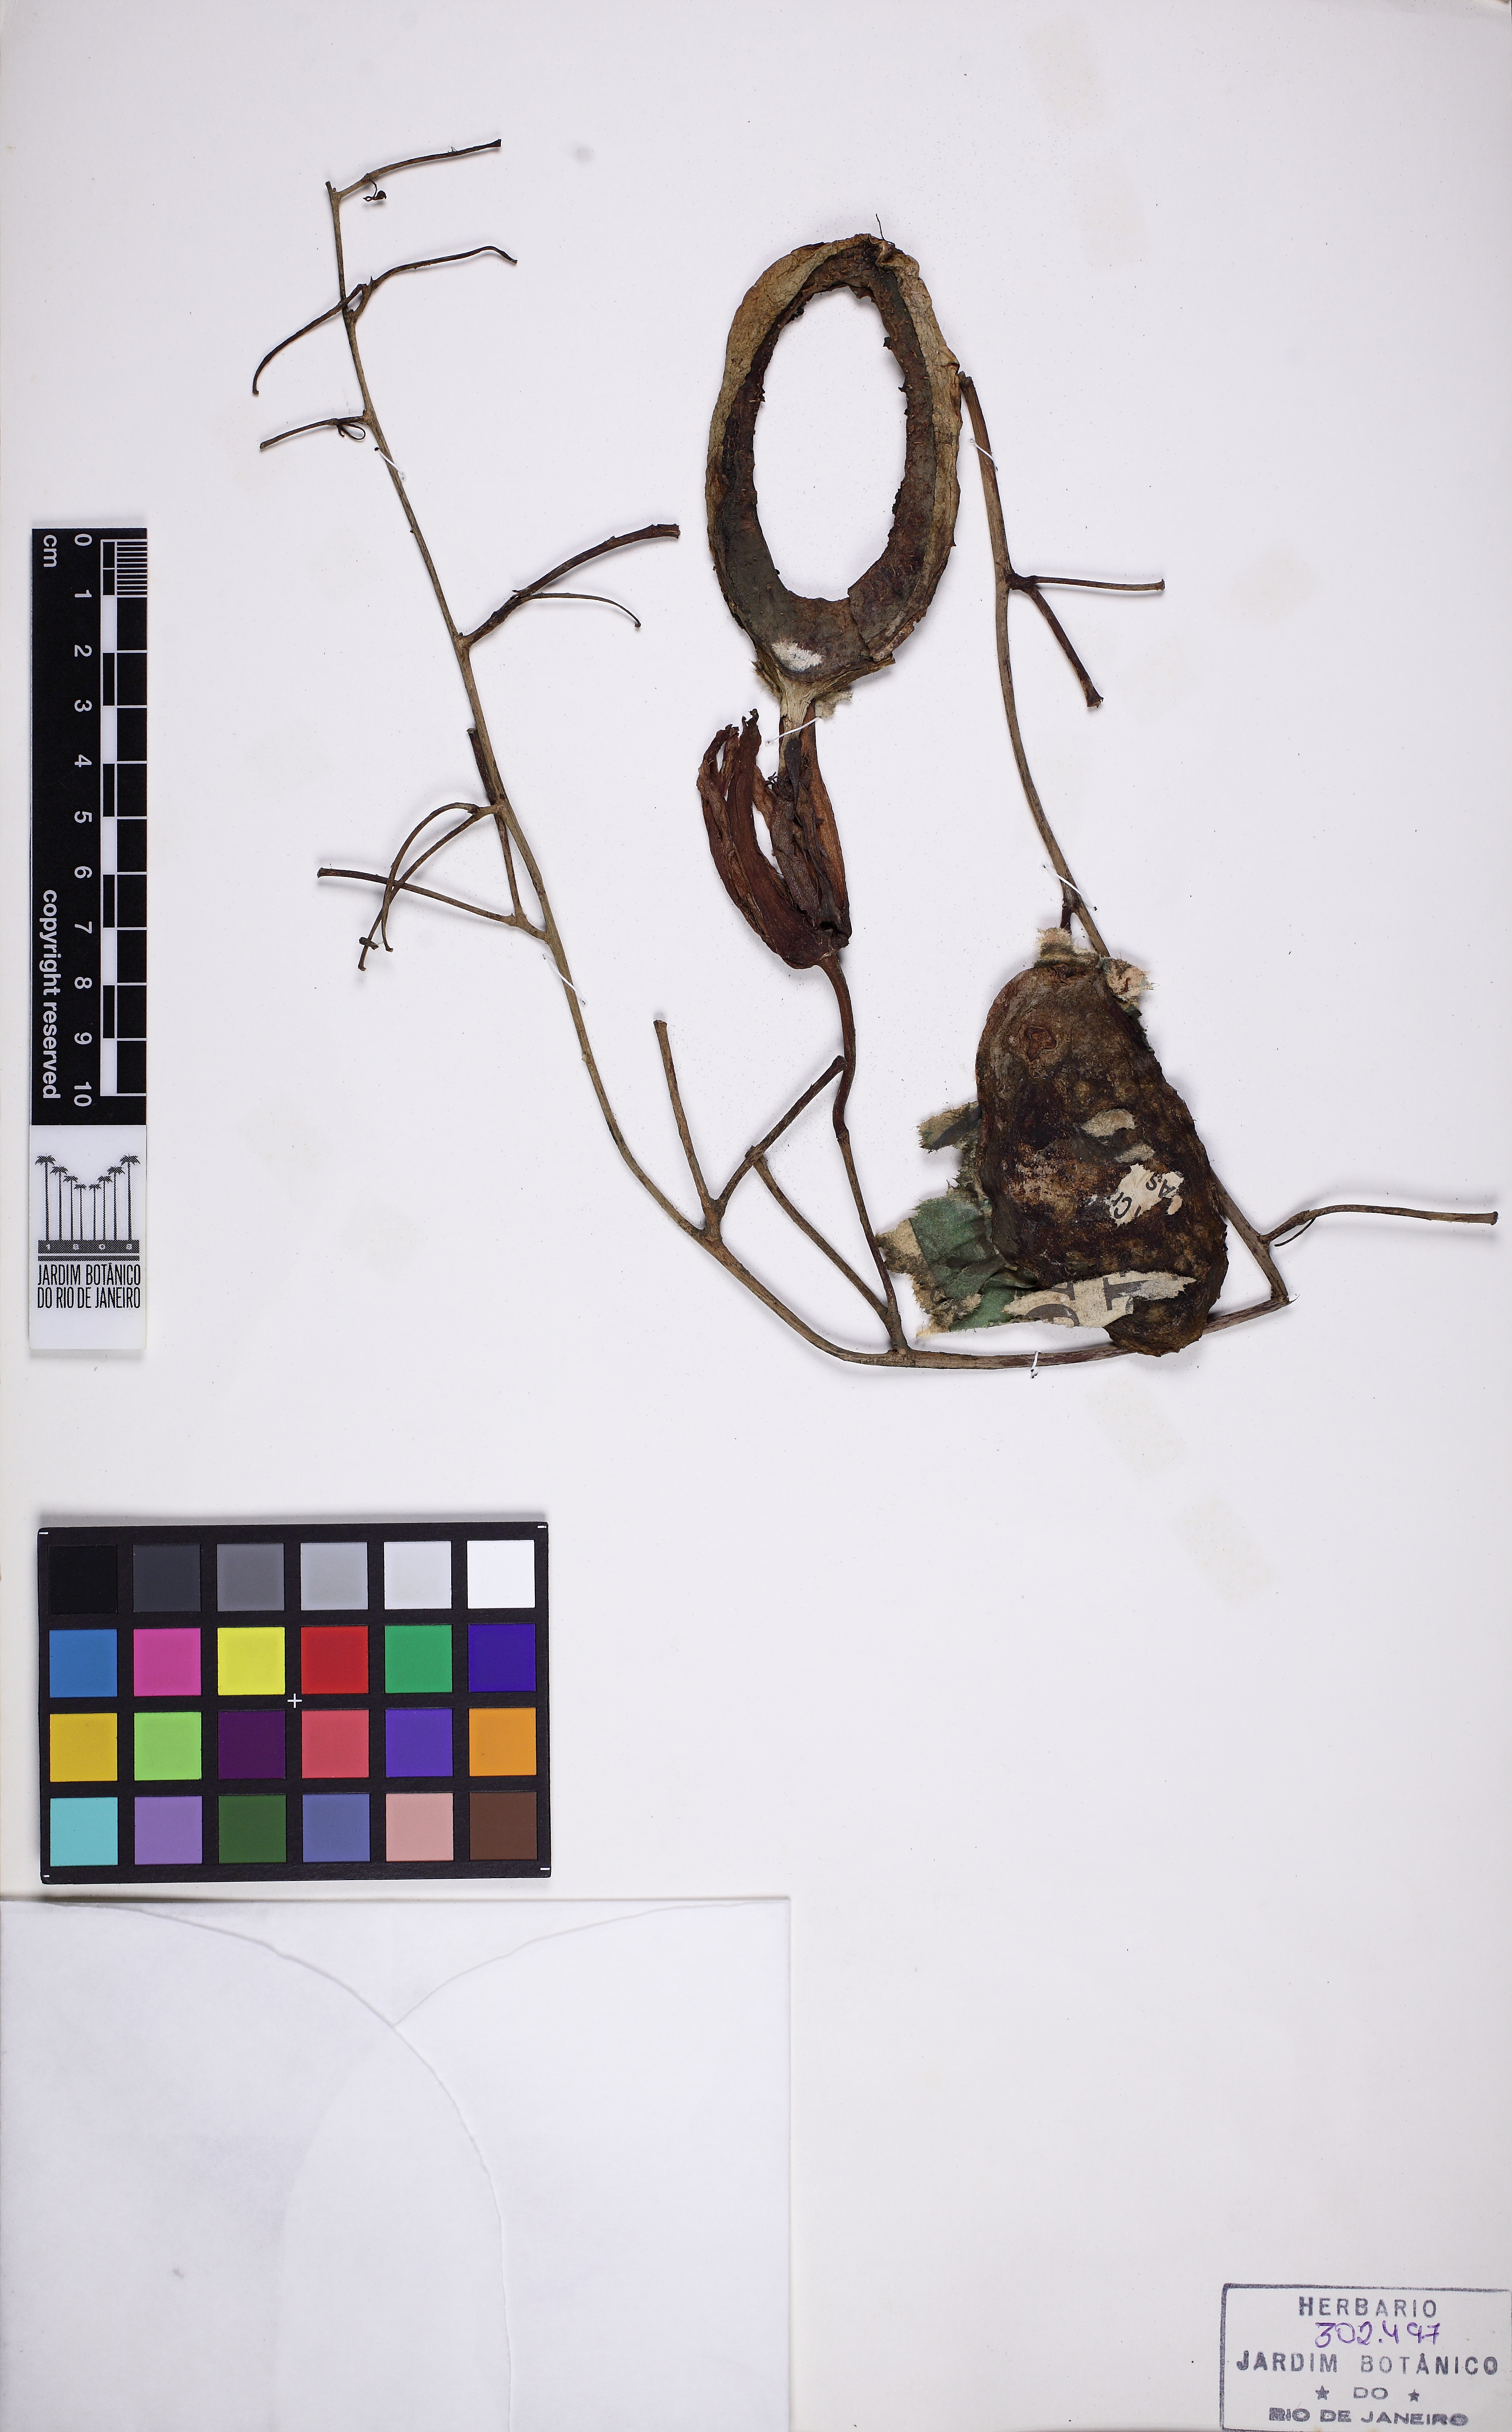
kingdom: Plantae
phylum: Tracheophyta
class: Magnoliopsida
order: Malpighiales
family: Passifloraceae
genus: Passiflora
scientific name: Passiflora ovalis
